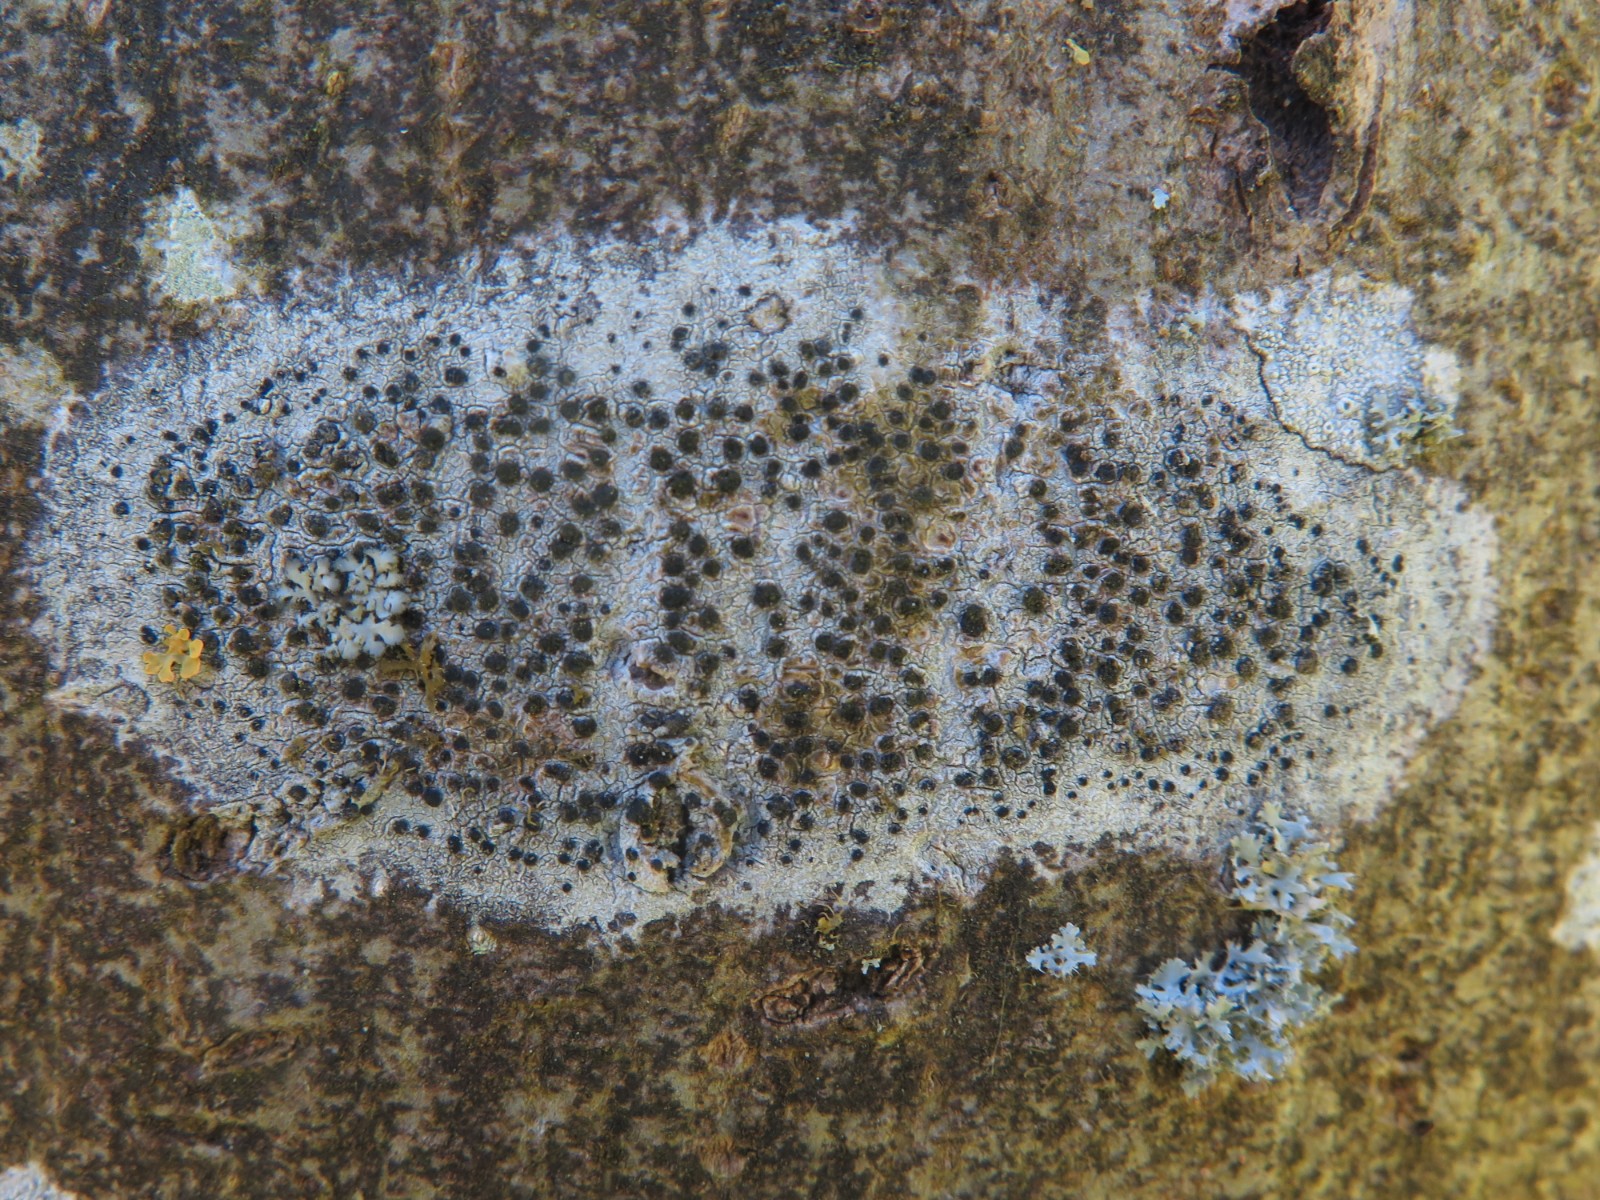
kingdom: Fungi
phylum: Ascomycota
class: Lecanoromycetes
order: Lecanorales
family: Lecanoraceae
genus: Lecidella
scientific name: Lecidella elaeochroma
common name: grågrøn skivelav
